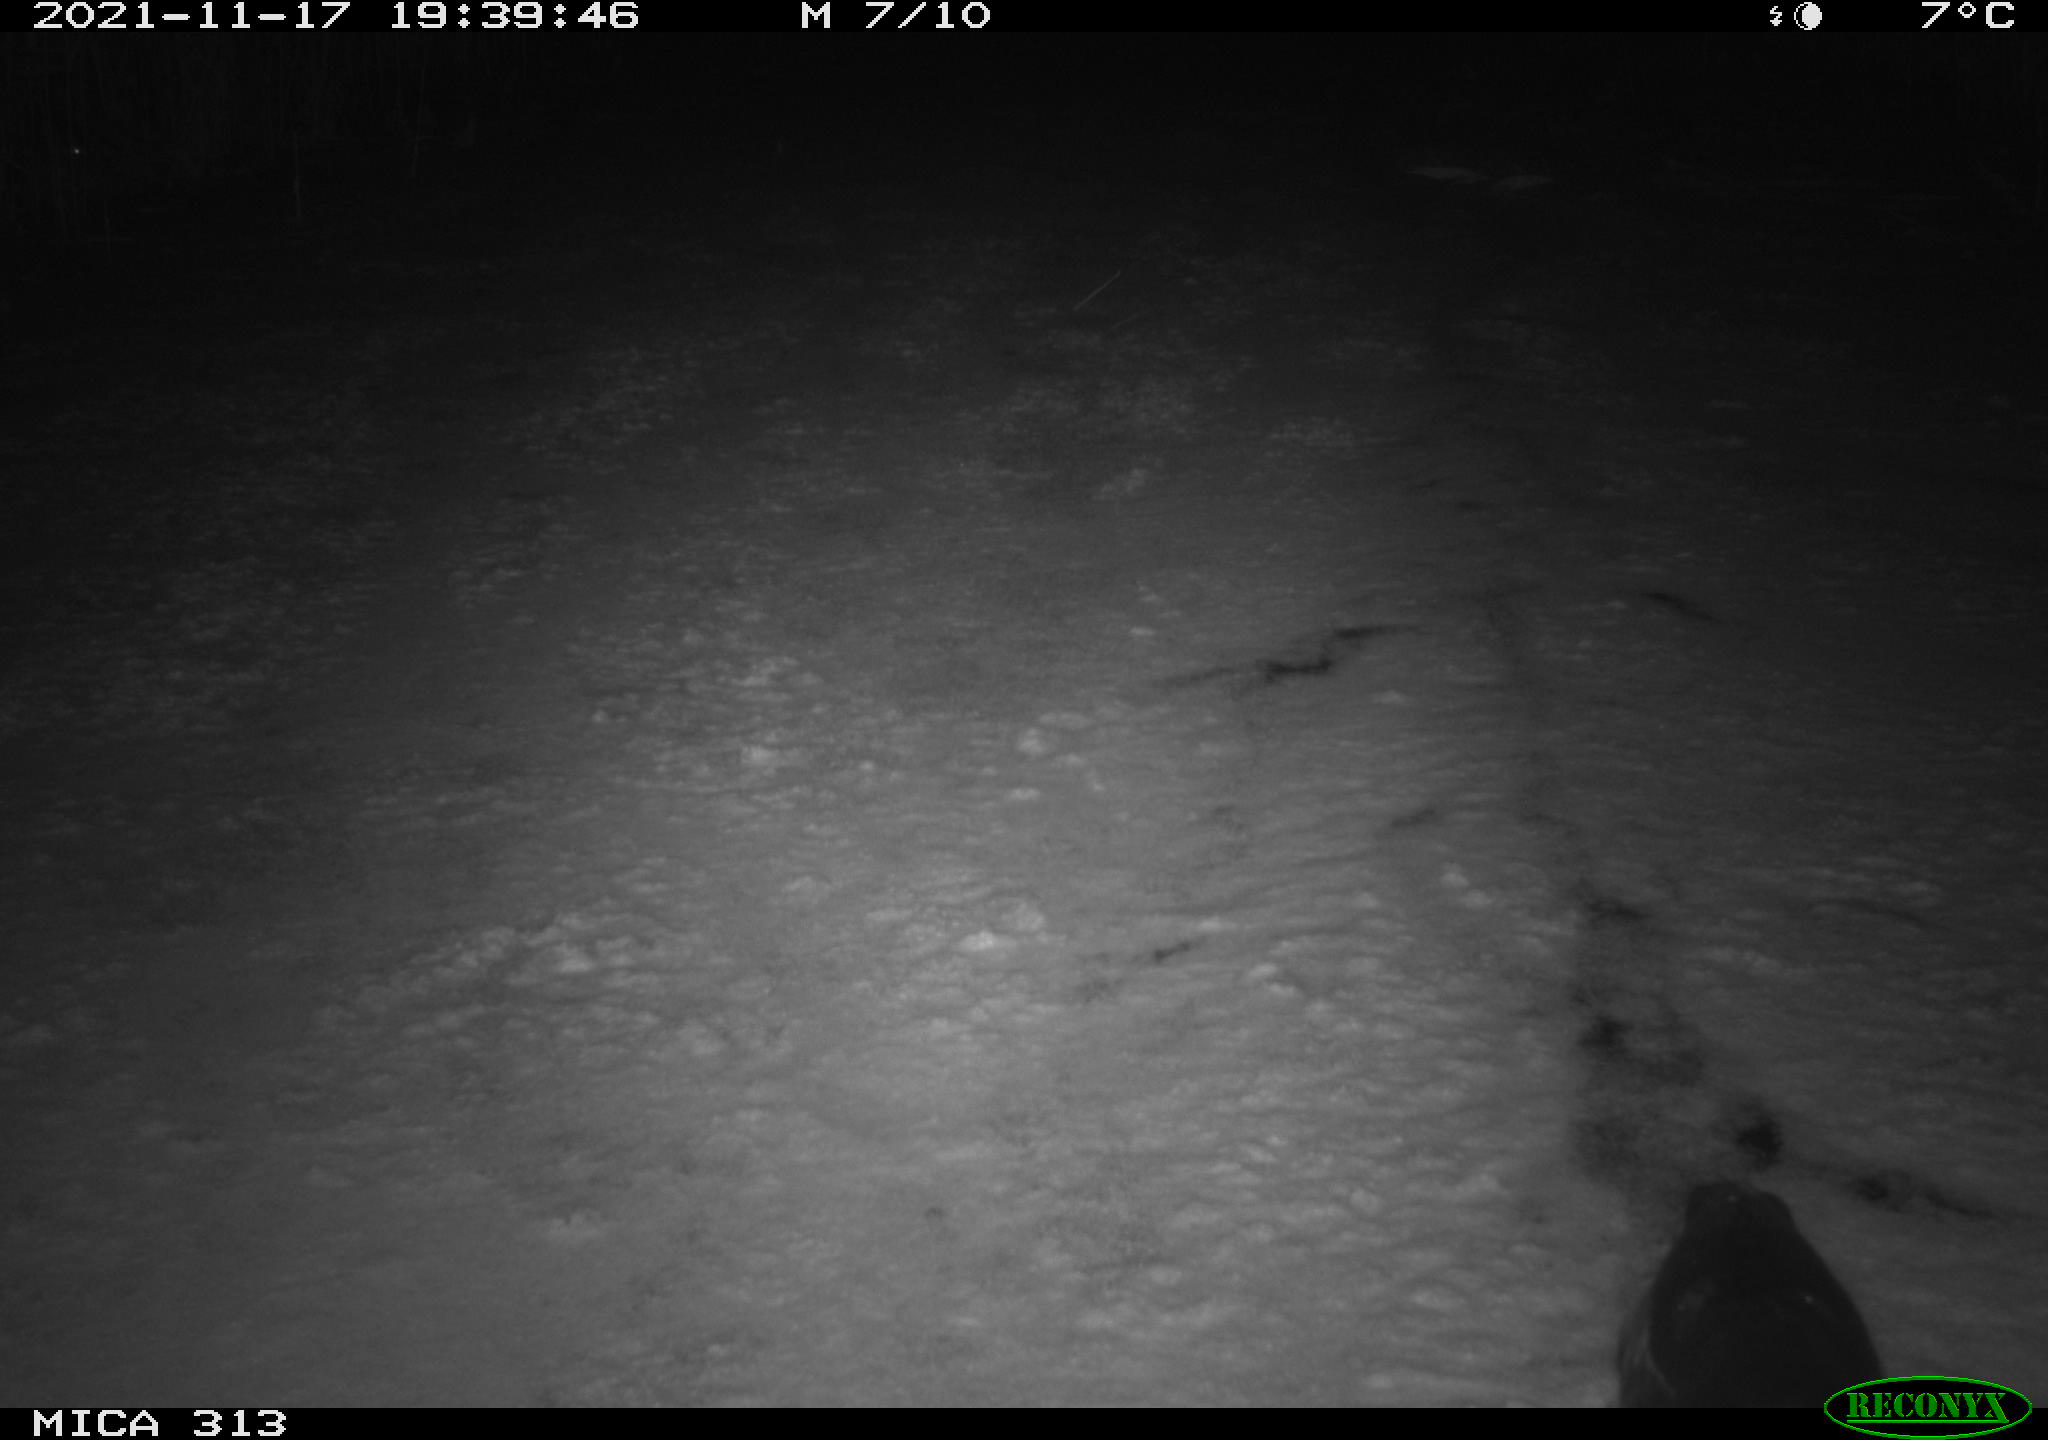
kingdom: Animalia
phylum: Chordata
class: Aves
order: Gruiformes
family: Rallidae
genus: Gallinula
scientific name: Gallinula chloropus
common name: Common moorhen
